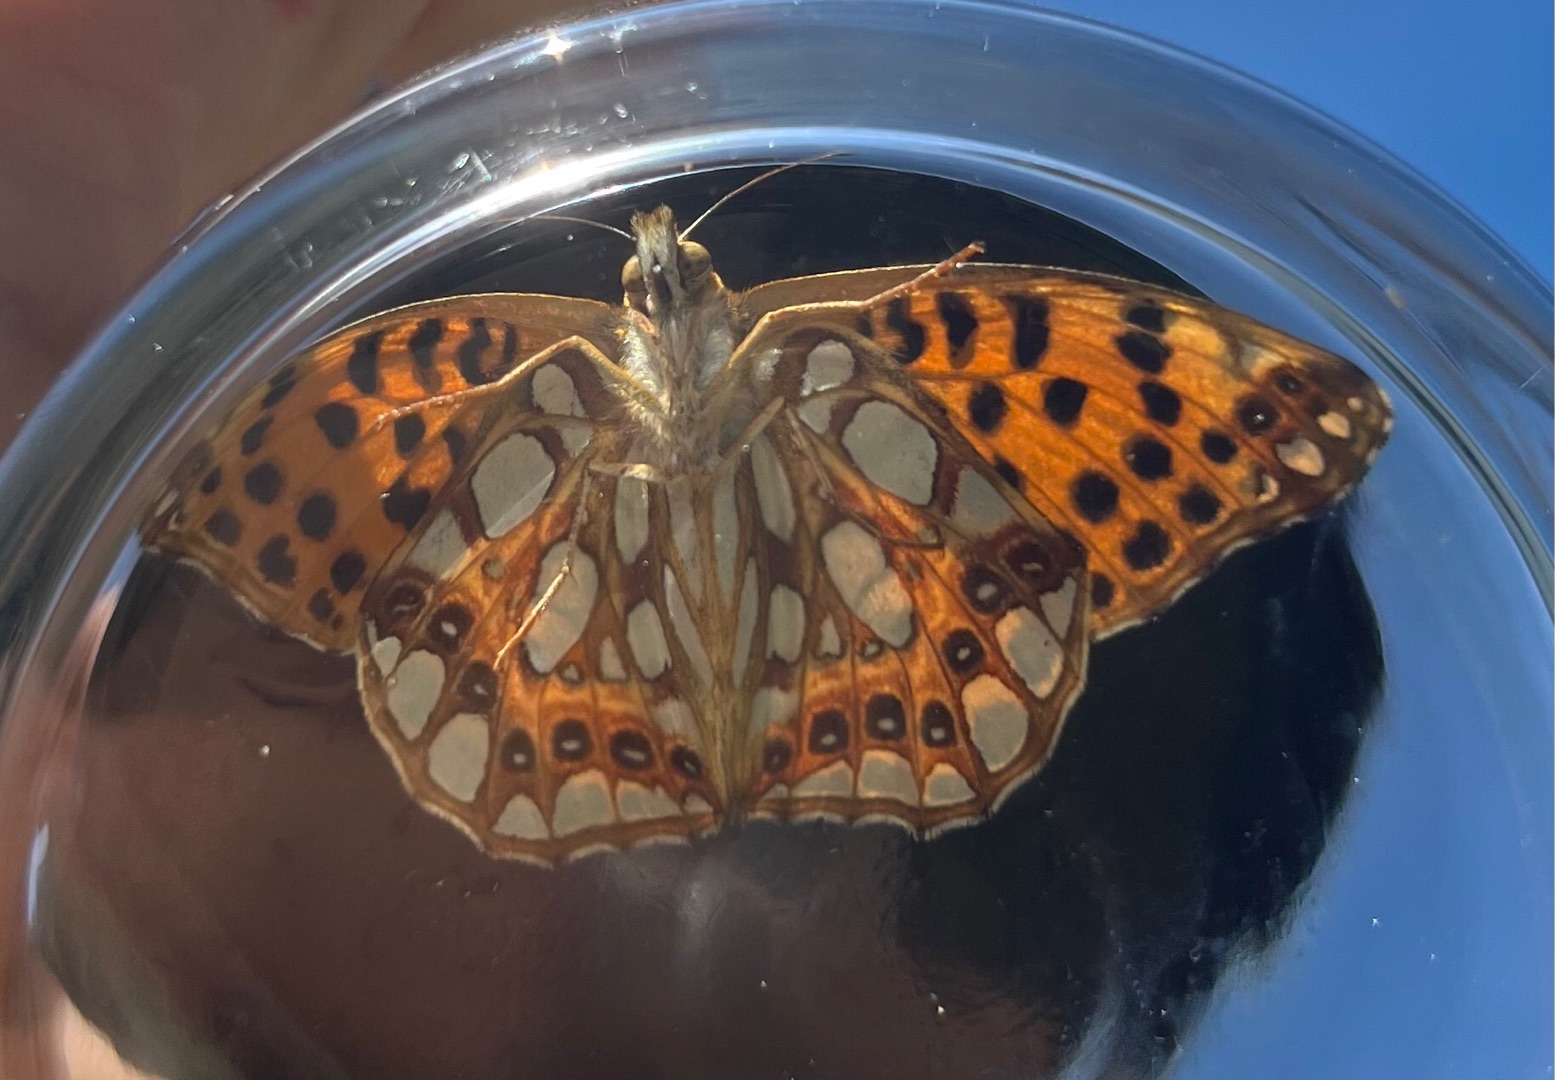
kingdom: Animalia
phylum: Arthropoda
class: Insecta
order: Lepidoptera
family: Nymphalidae
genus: Issoria
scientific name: Issoria lathonia
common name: Storplettet perlemorsommerfugl
